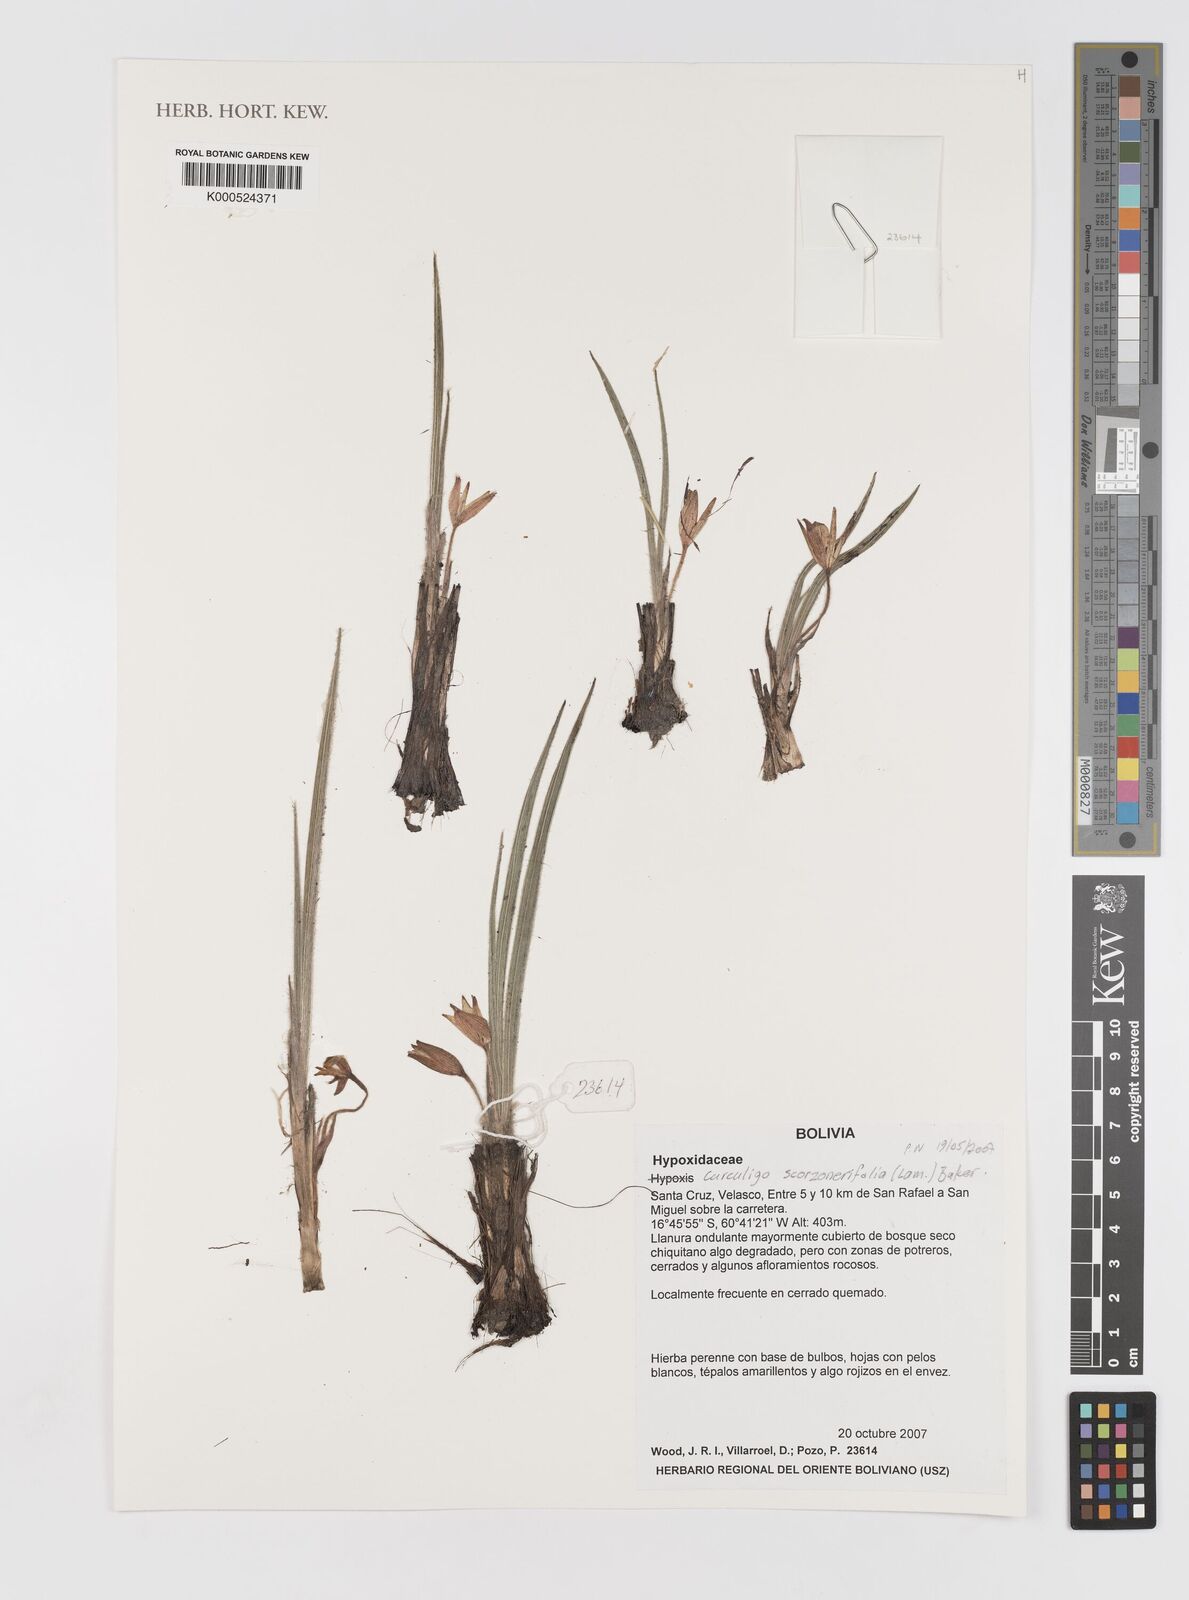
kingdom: Plantae
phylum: Tracheophyta
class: Liliopsida
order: Asparagales
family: Hypoxidaceae
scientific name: Hypoxidaceae
